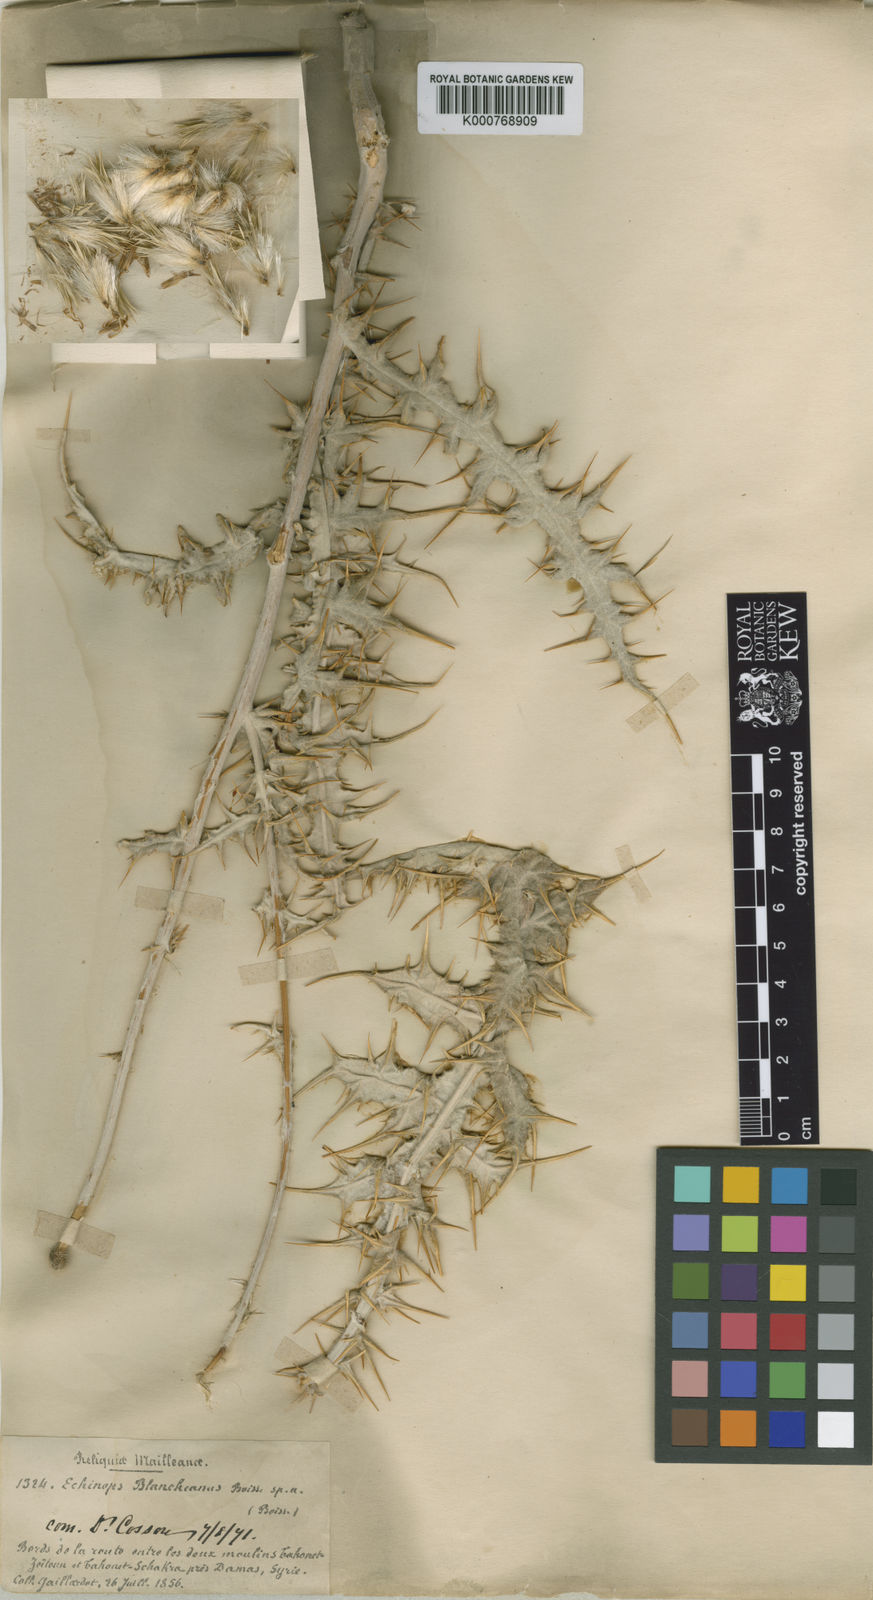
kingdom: Plantae
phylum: Tracheophyta
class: Magnoliopsida
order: Asterales
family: Asteraceae
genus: Echinops
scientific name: Echinops polyceras
